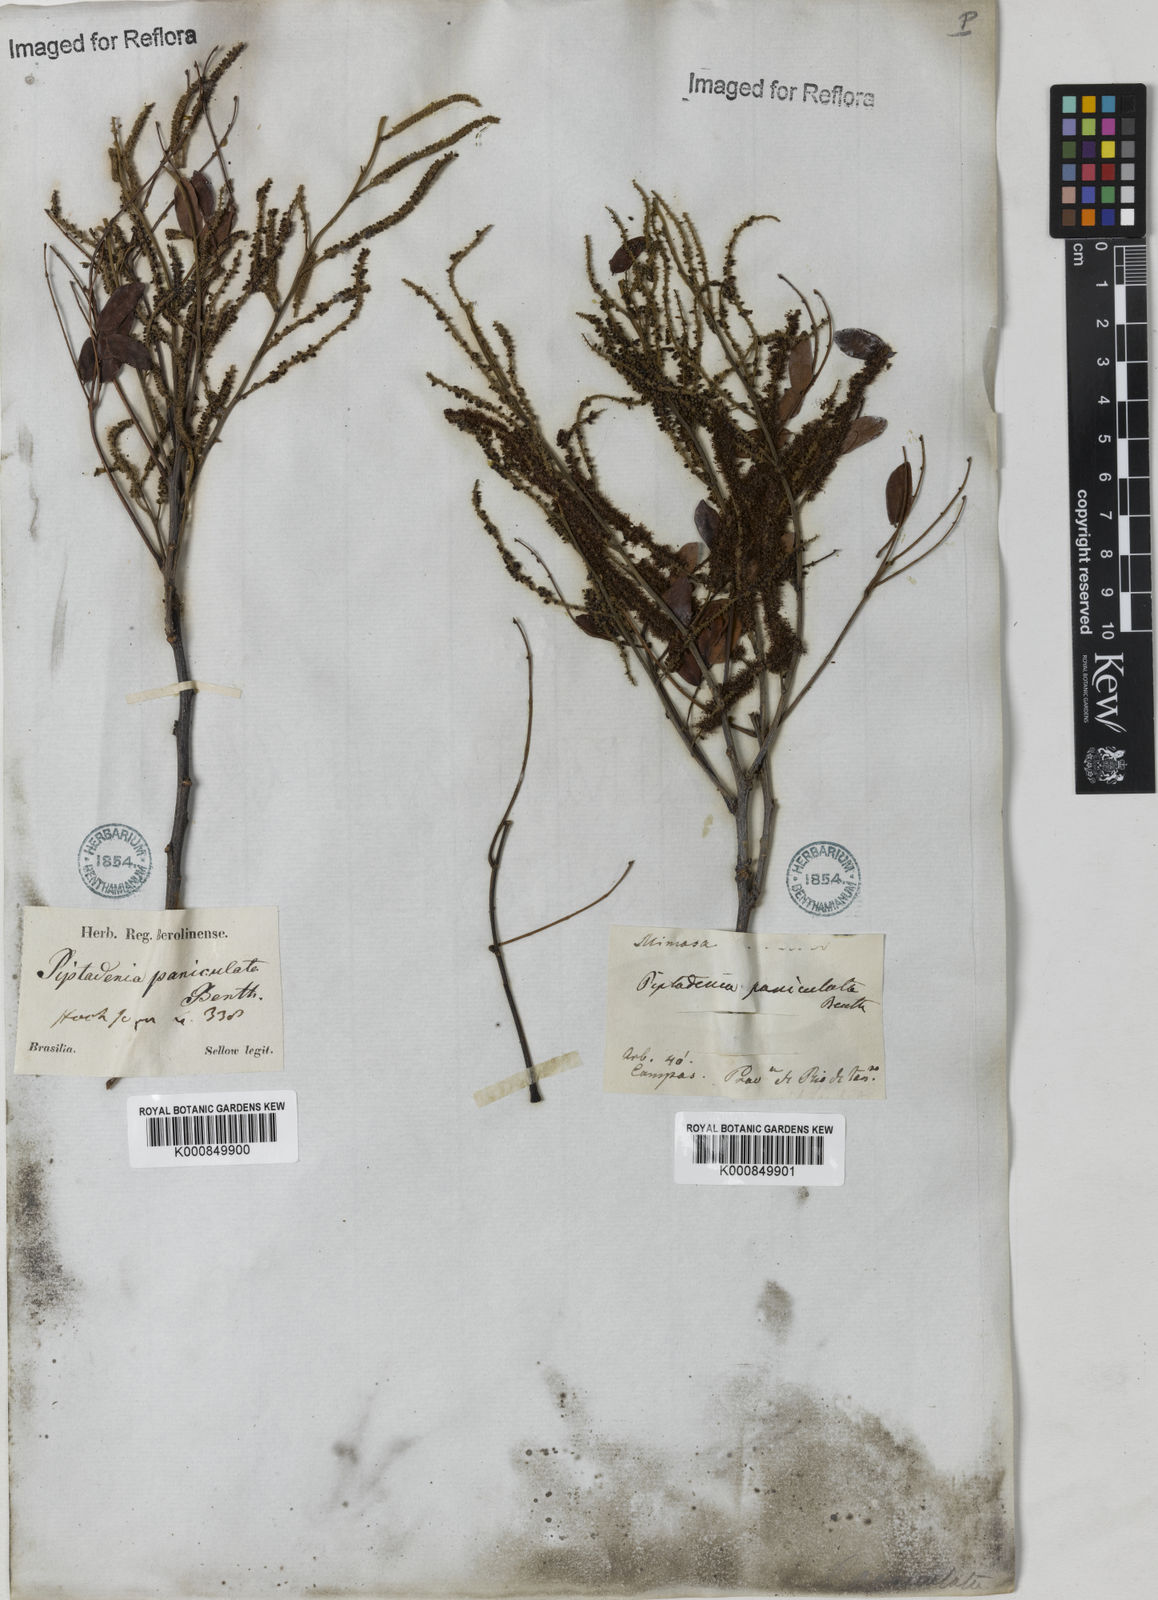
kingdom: Plantae
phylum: Tracheophyta
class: Magnoliopsida
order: Fabales
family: Fabaceae
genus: Piptadenia
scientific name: Piptadenia paniculata
